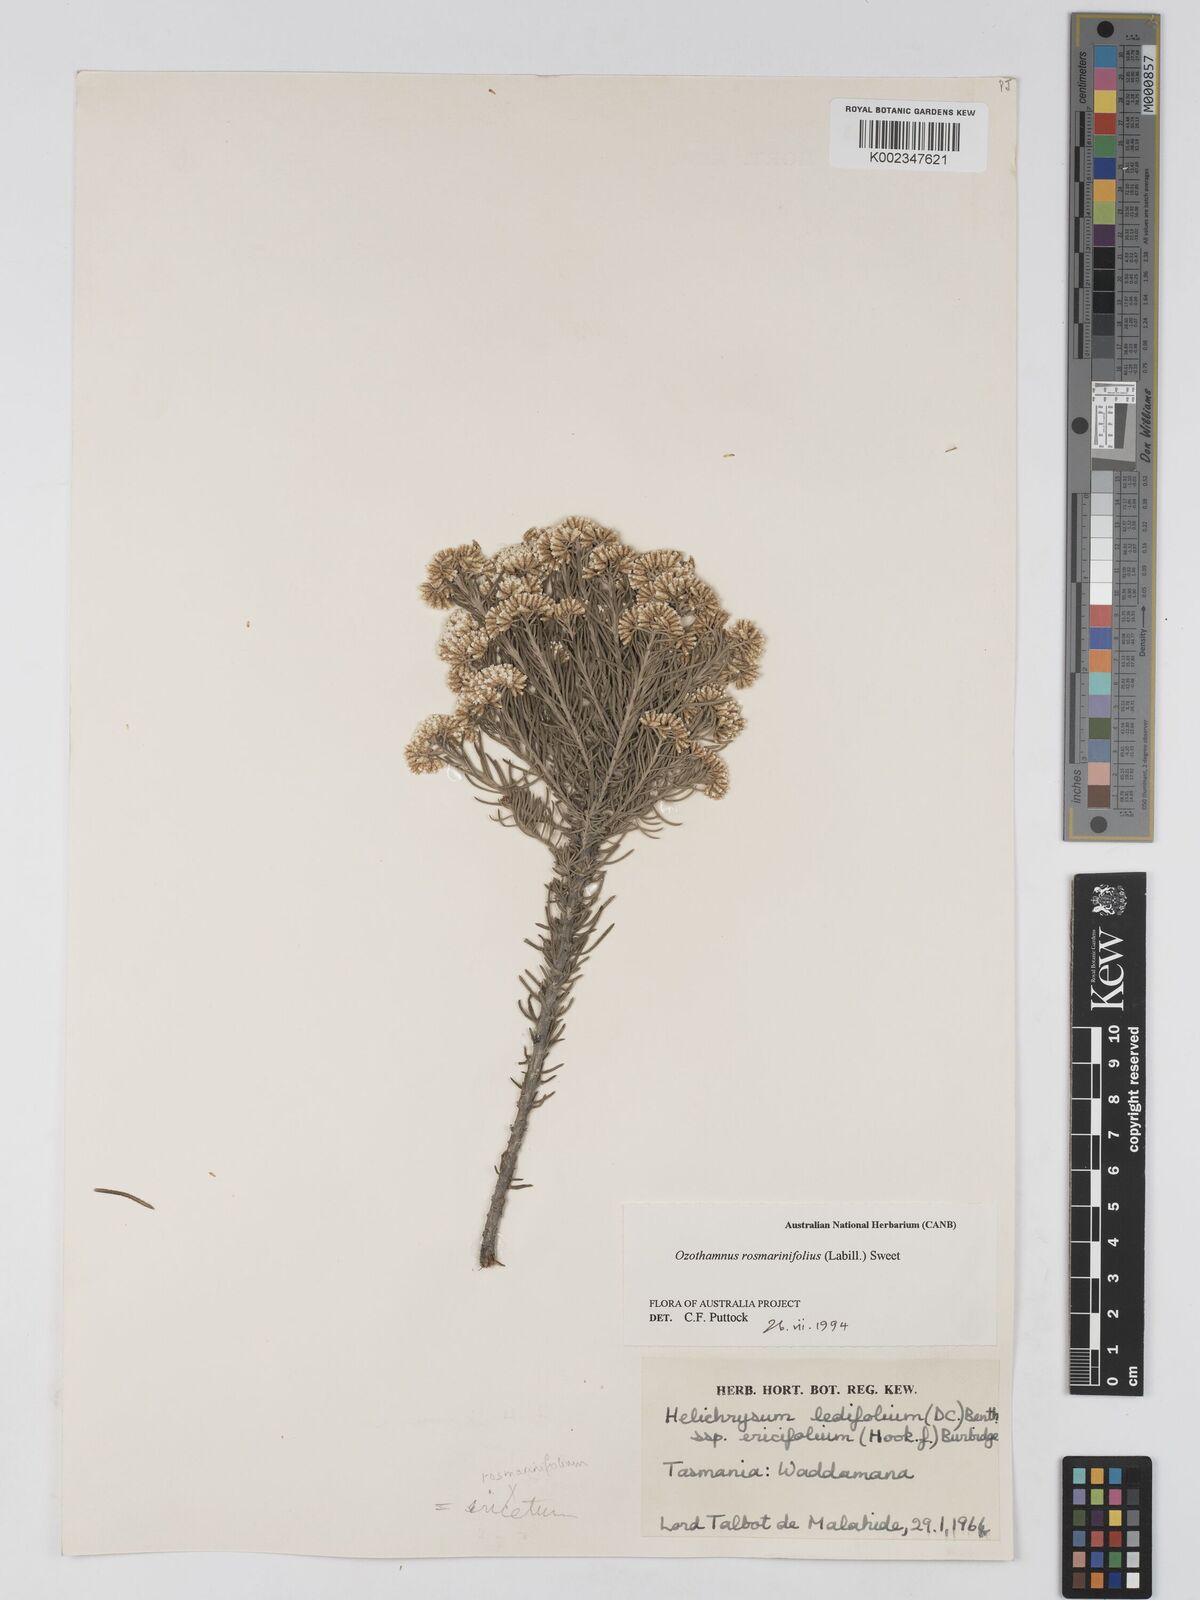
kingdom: Plantae
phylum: Tracheophyta
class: Magnoliopsida
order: Asterales
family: Asteraceae
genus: Ozothamnus
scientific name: Ozothamnus rosmarinifolius
